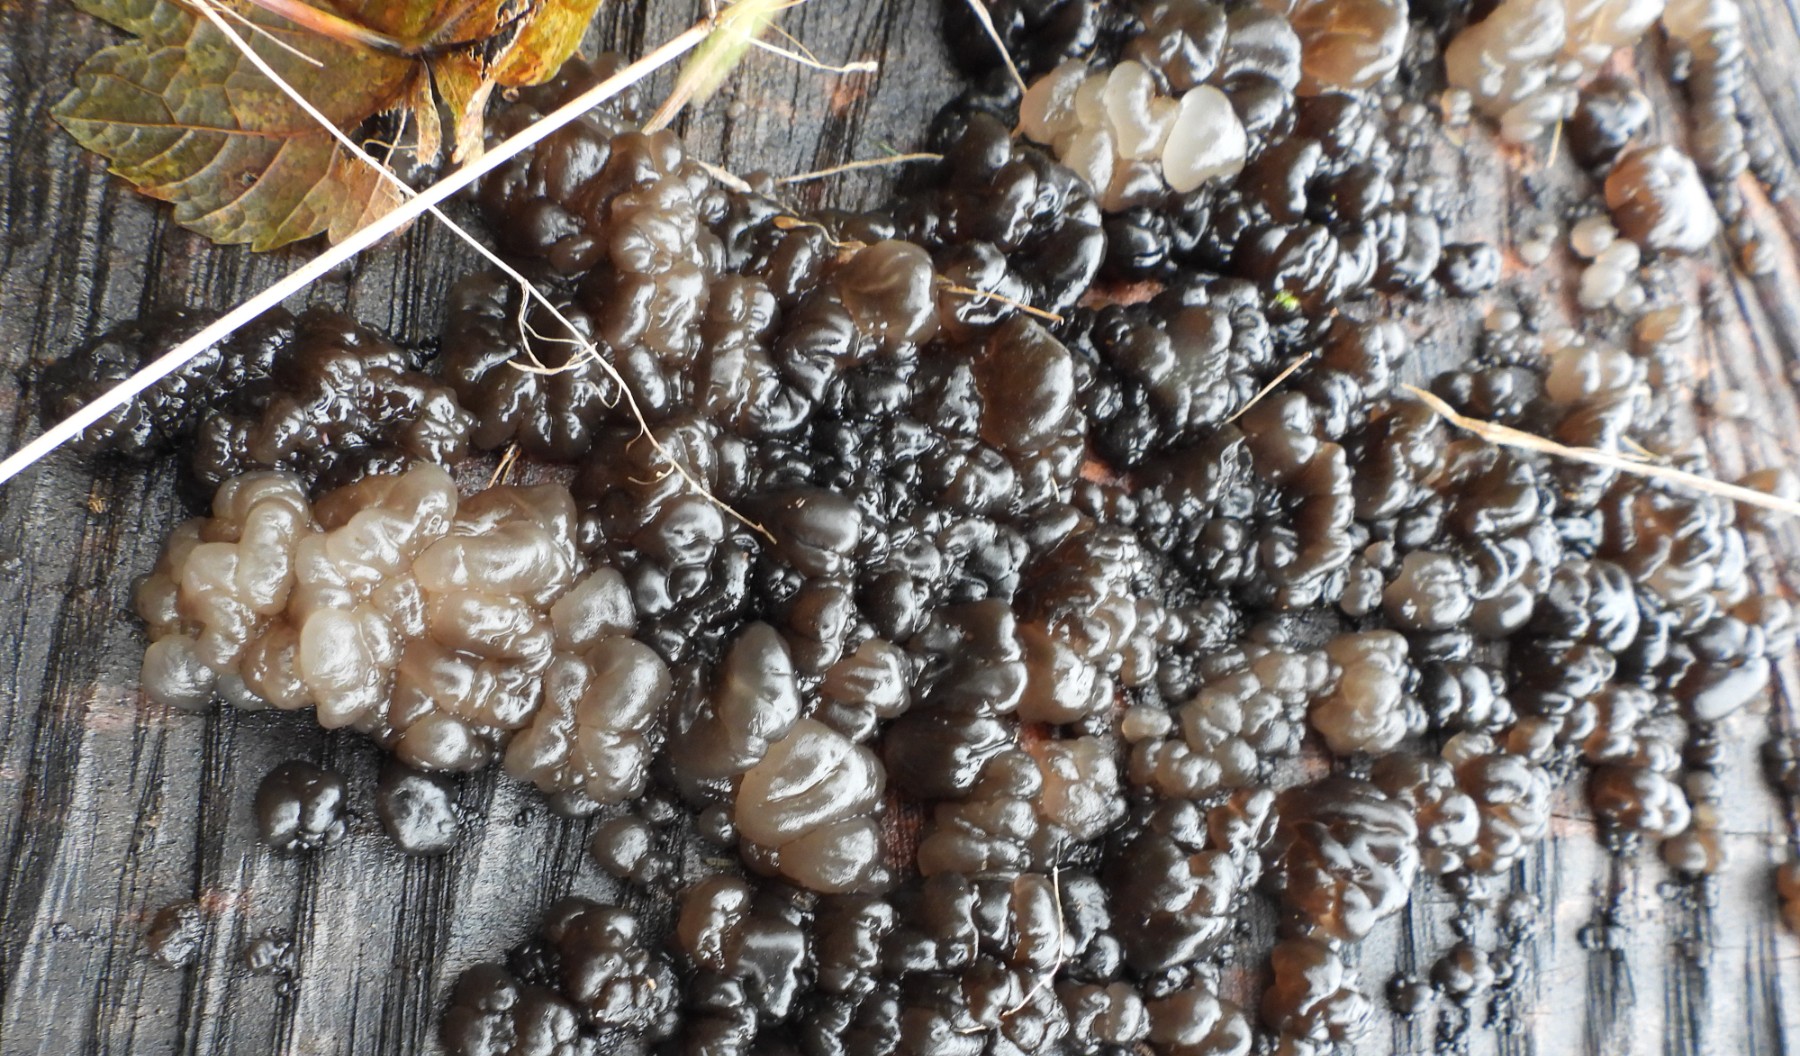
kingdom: Fungi
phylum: Basidiomycota
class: Agaricomycetes
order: Auriculariales
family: Auriculariaceae
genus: Exidia
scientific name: Exidia nigricans
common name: almindelig bævretop
